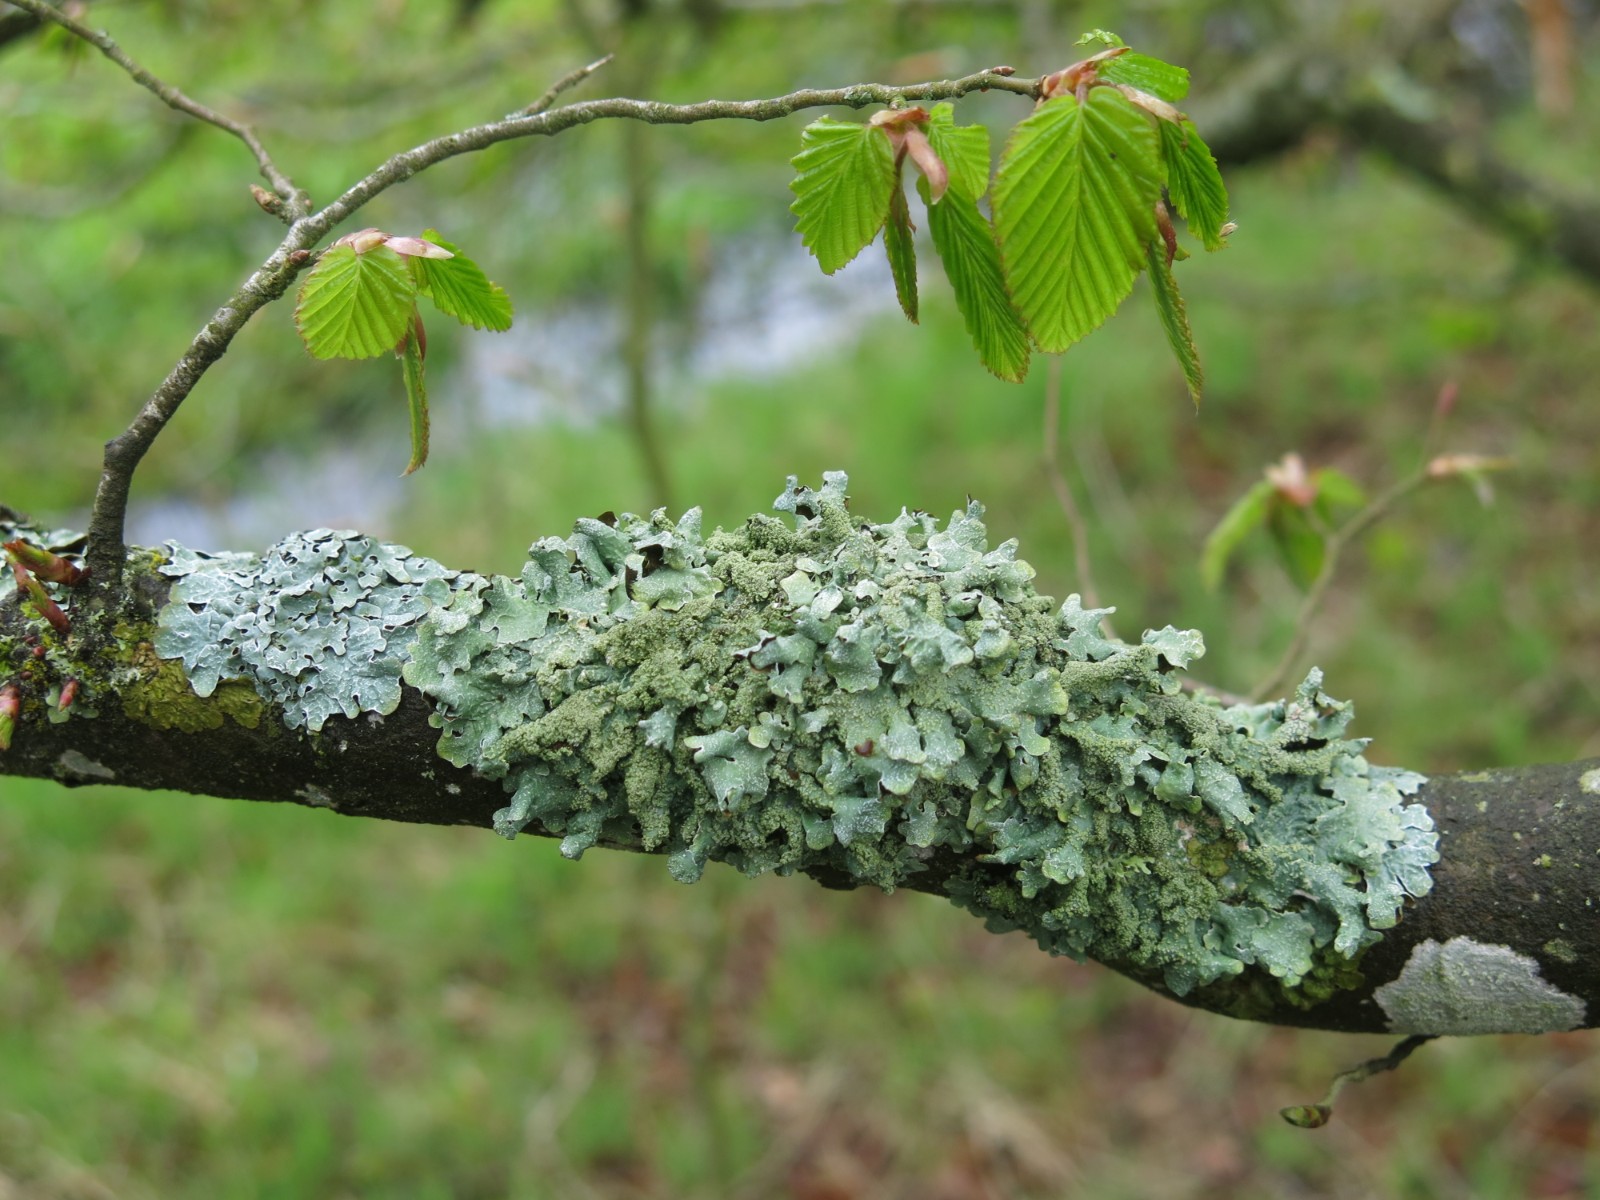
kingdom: Fungi
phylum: Ascomycota
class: Lecanoromycetes
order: Lecanorales
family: Parmeliaceae
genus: Parmelia
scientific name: Parmelia submontana
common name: langlobet skållav
